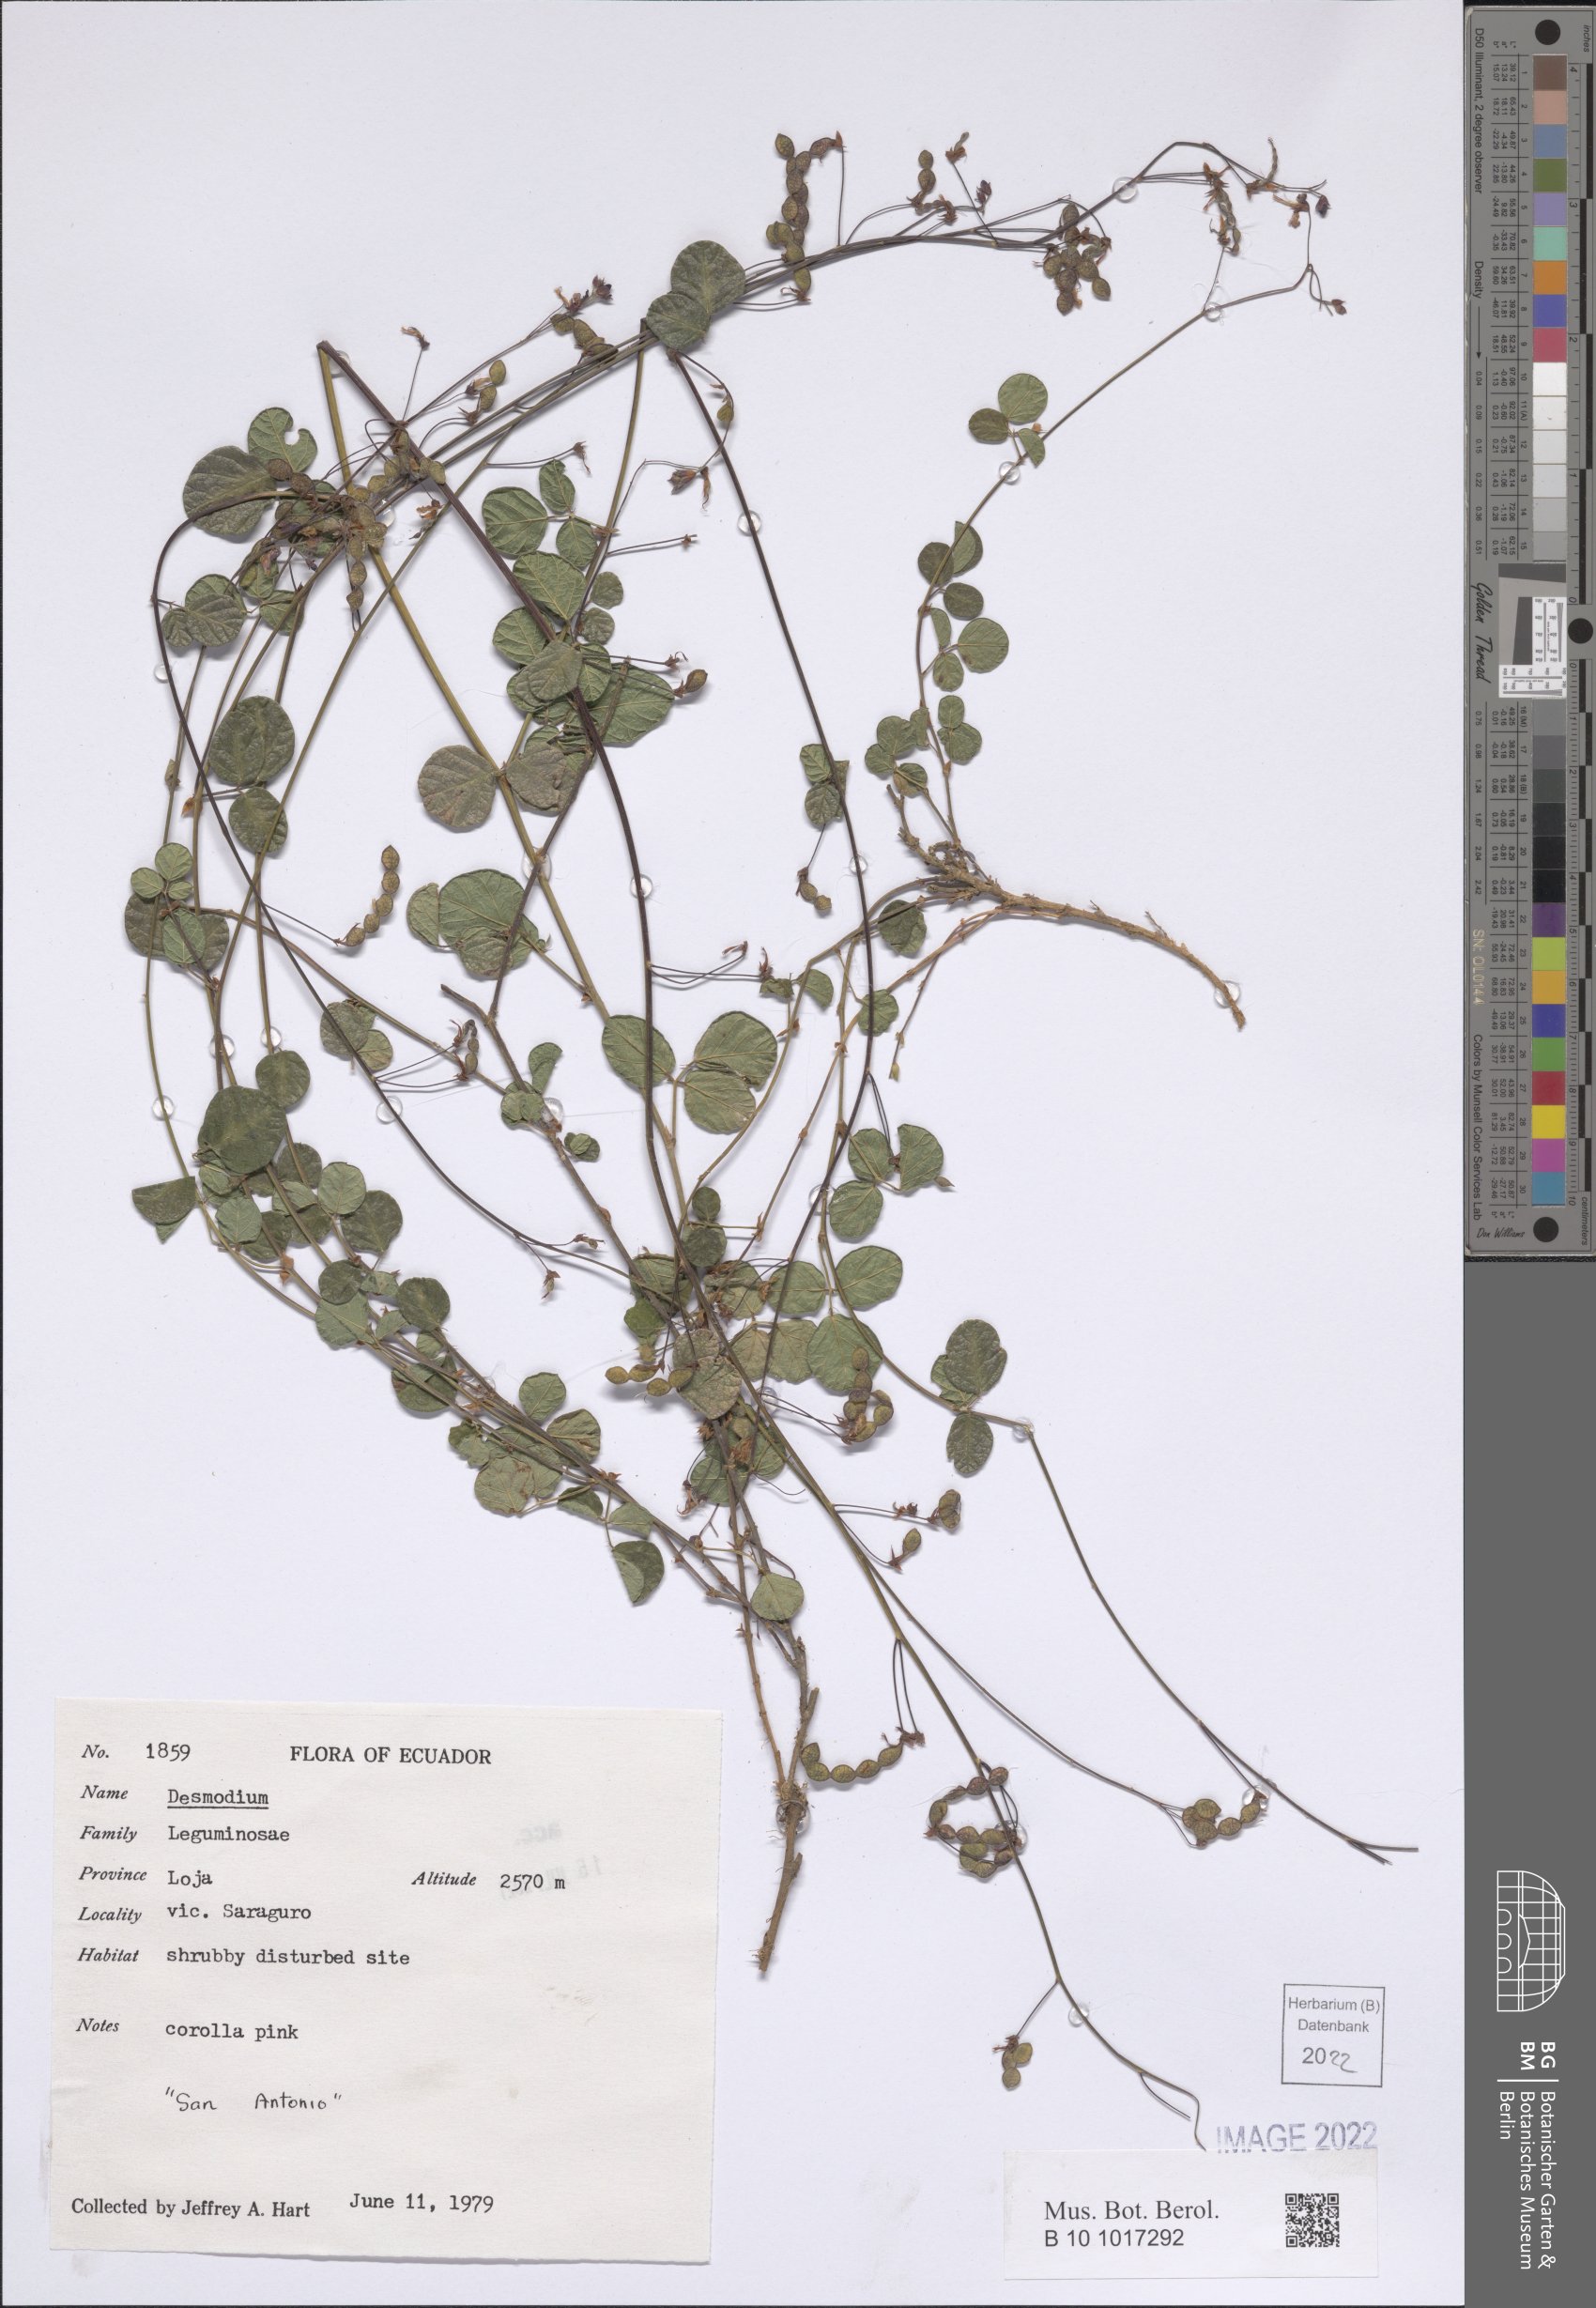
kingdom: Plantae
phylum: Tracheophyta
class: Magnoliopsida
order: Fabales
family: Fabaceae
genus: Desmodium
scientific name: Desmodium
